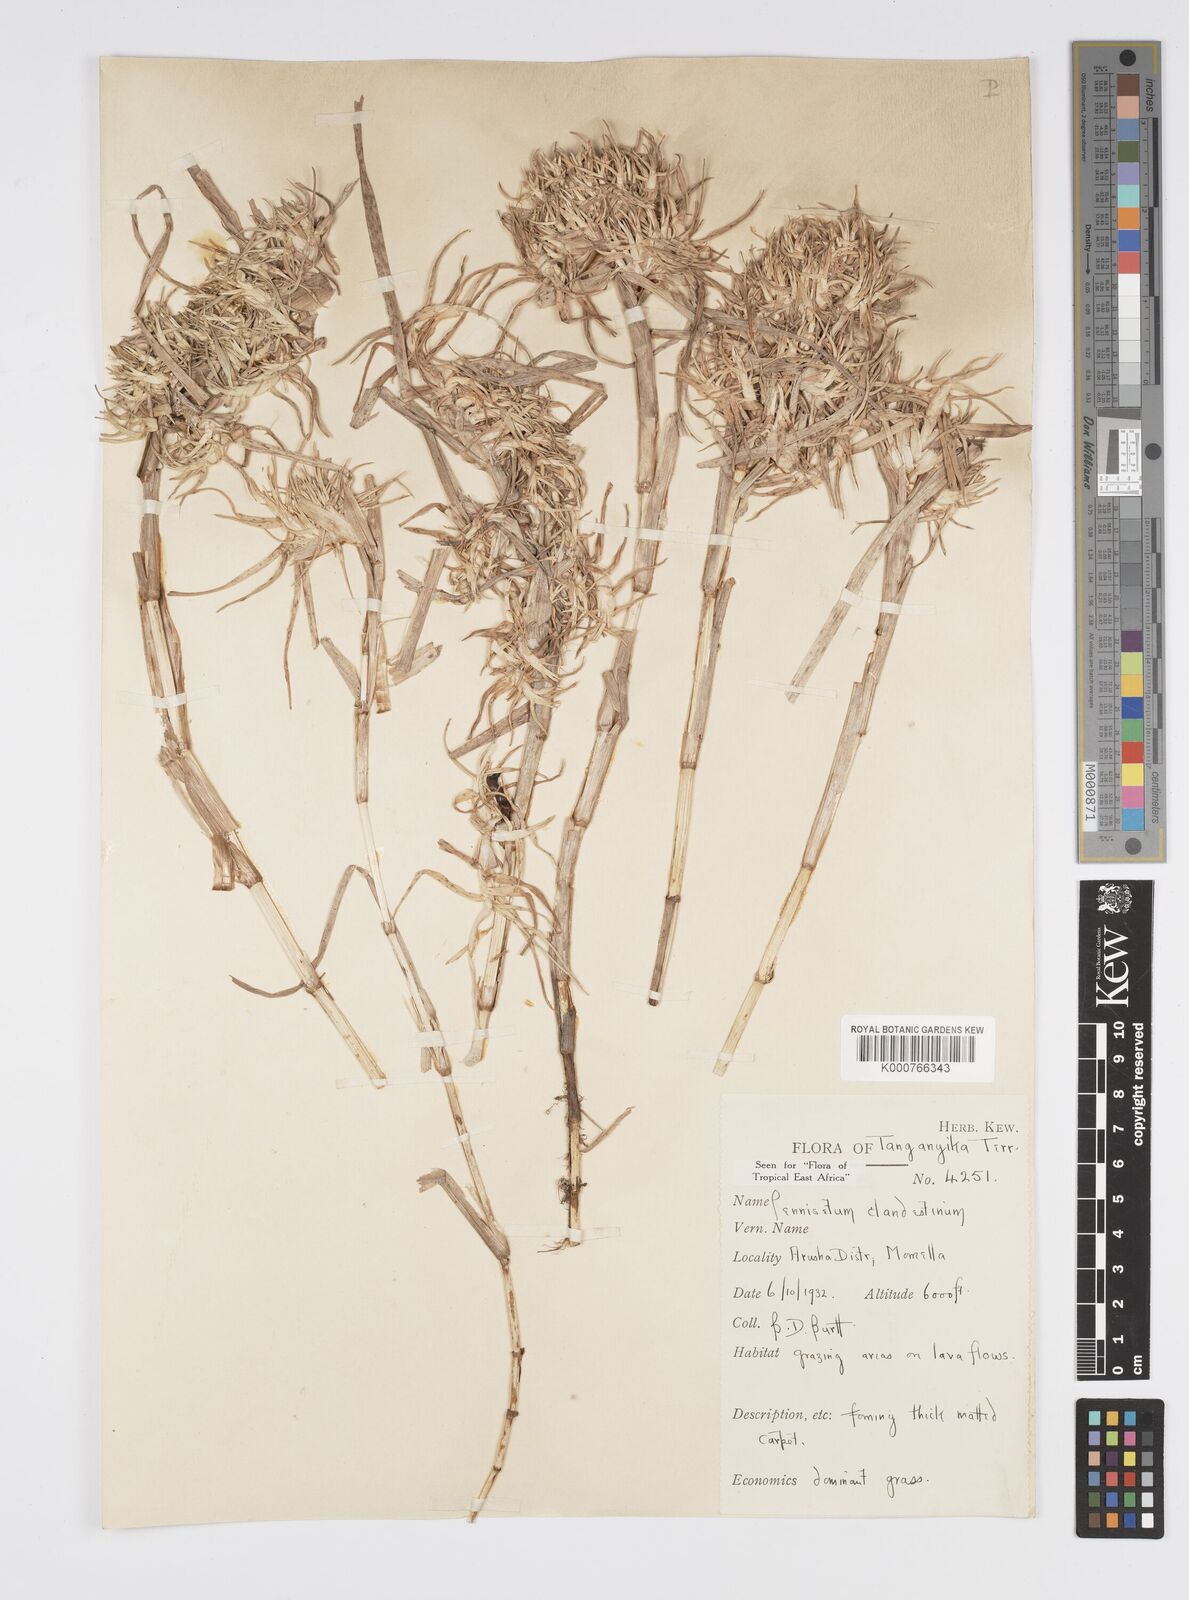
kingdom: Plantae
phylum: Tracheophyta
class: Liliopsida
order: Poales
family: Poaceae
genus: Cenchrus
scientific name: Cenchrus clandestinus
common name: Kikuyugrass
